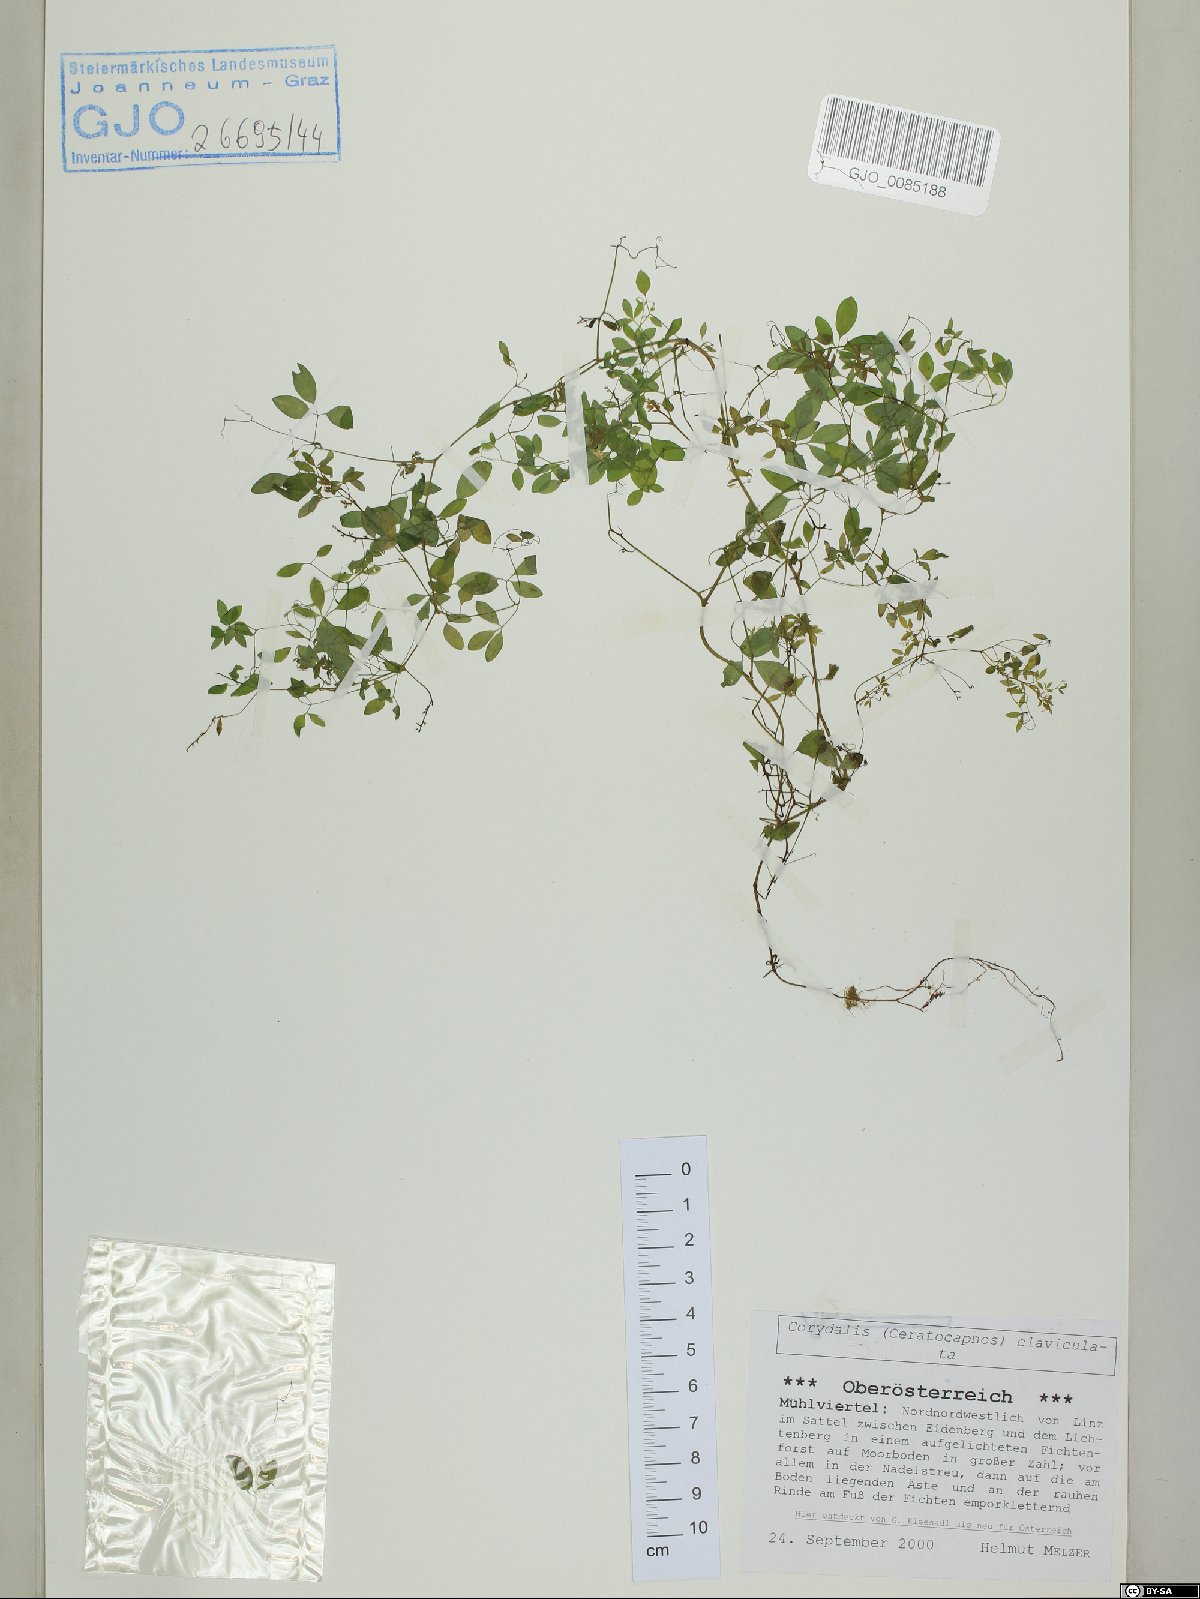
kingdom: Plantae
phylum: Tracheophyta
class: Magnoliopsida
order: Ranunculales
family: Papaveraceae
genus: Ceratocapnos
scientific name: Ceratocapnos claviculata
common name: Climbing corydalis
